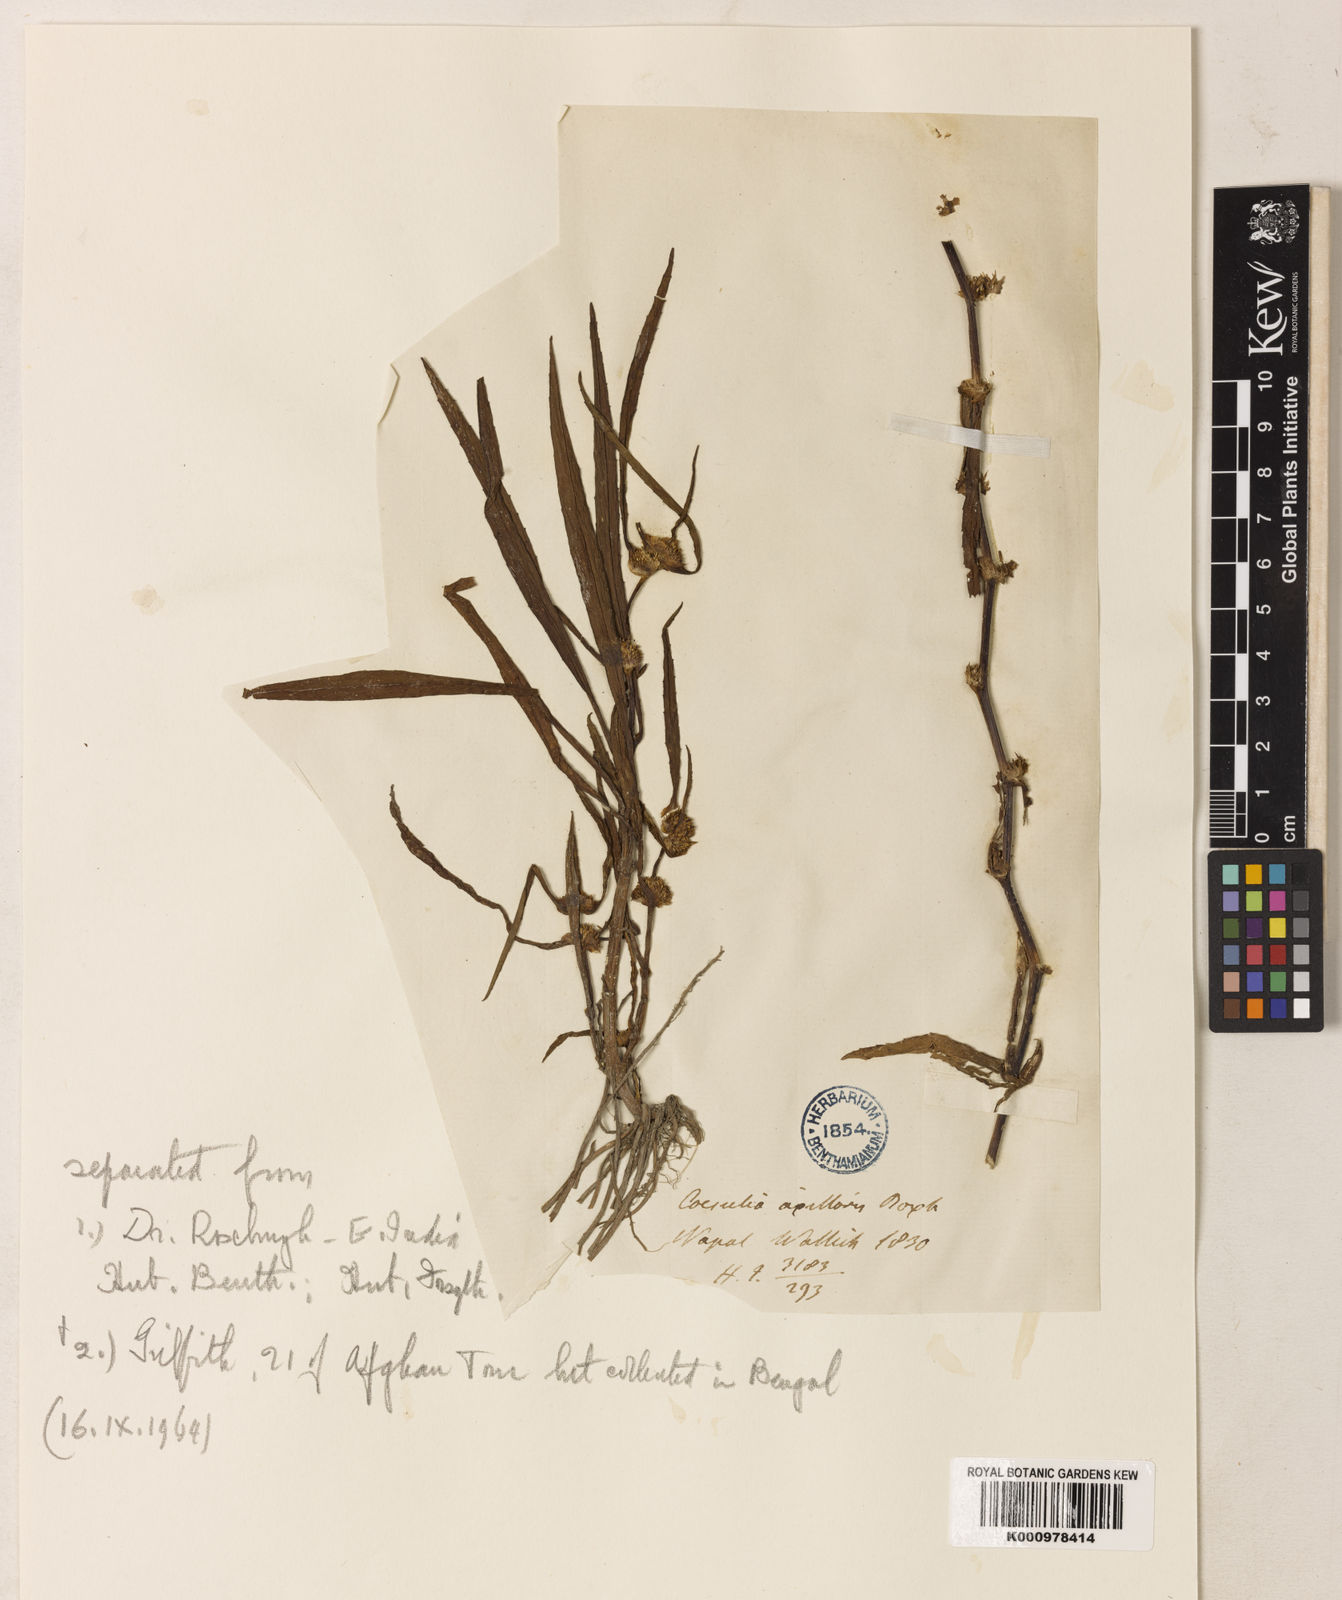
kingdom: Plantae
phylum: Tracheophyta
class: Magnoliopsida
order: Asterales
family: Asteraceae
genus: Caesulia
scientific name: Caesulia axillaris
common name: Pink node flower
